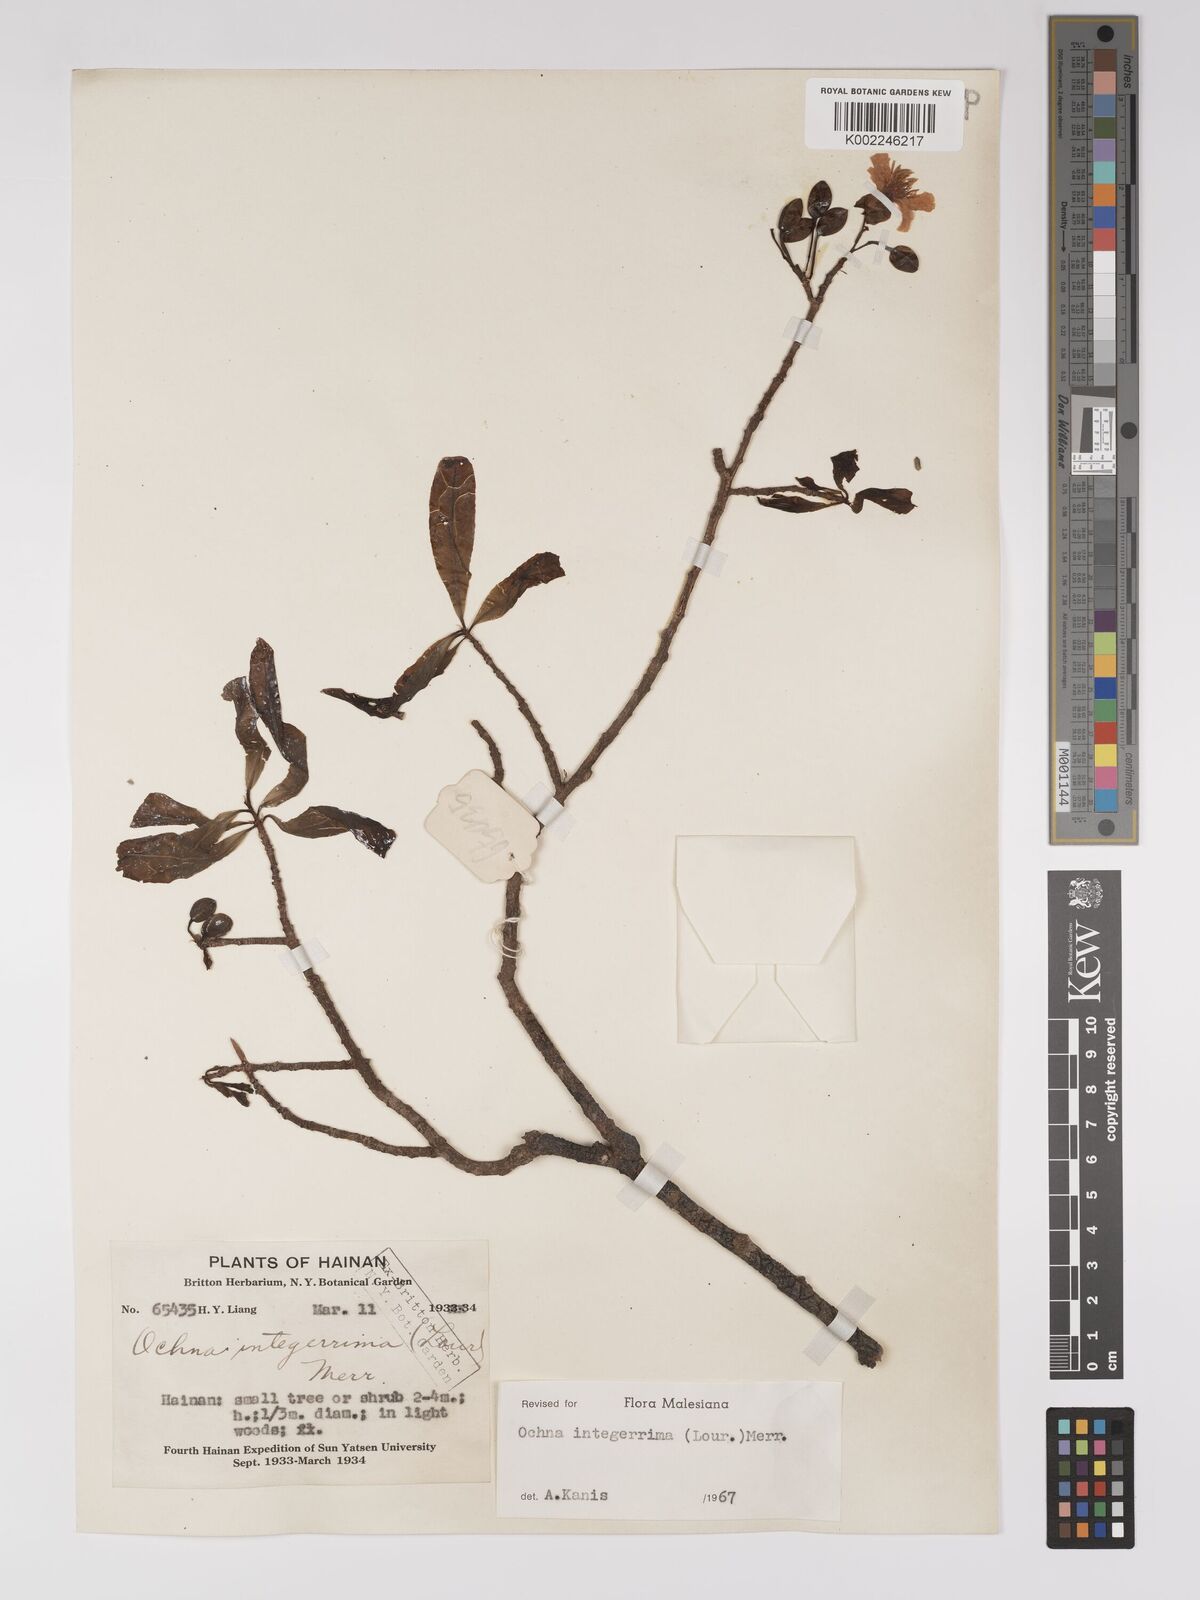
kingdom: Plantae
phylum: Tracheophyta
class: Magnoliopsida
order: Malpighiales
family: Ochnaceae
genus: Ochna
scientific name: Ochna integerrima
